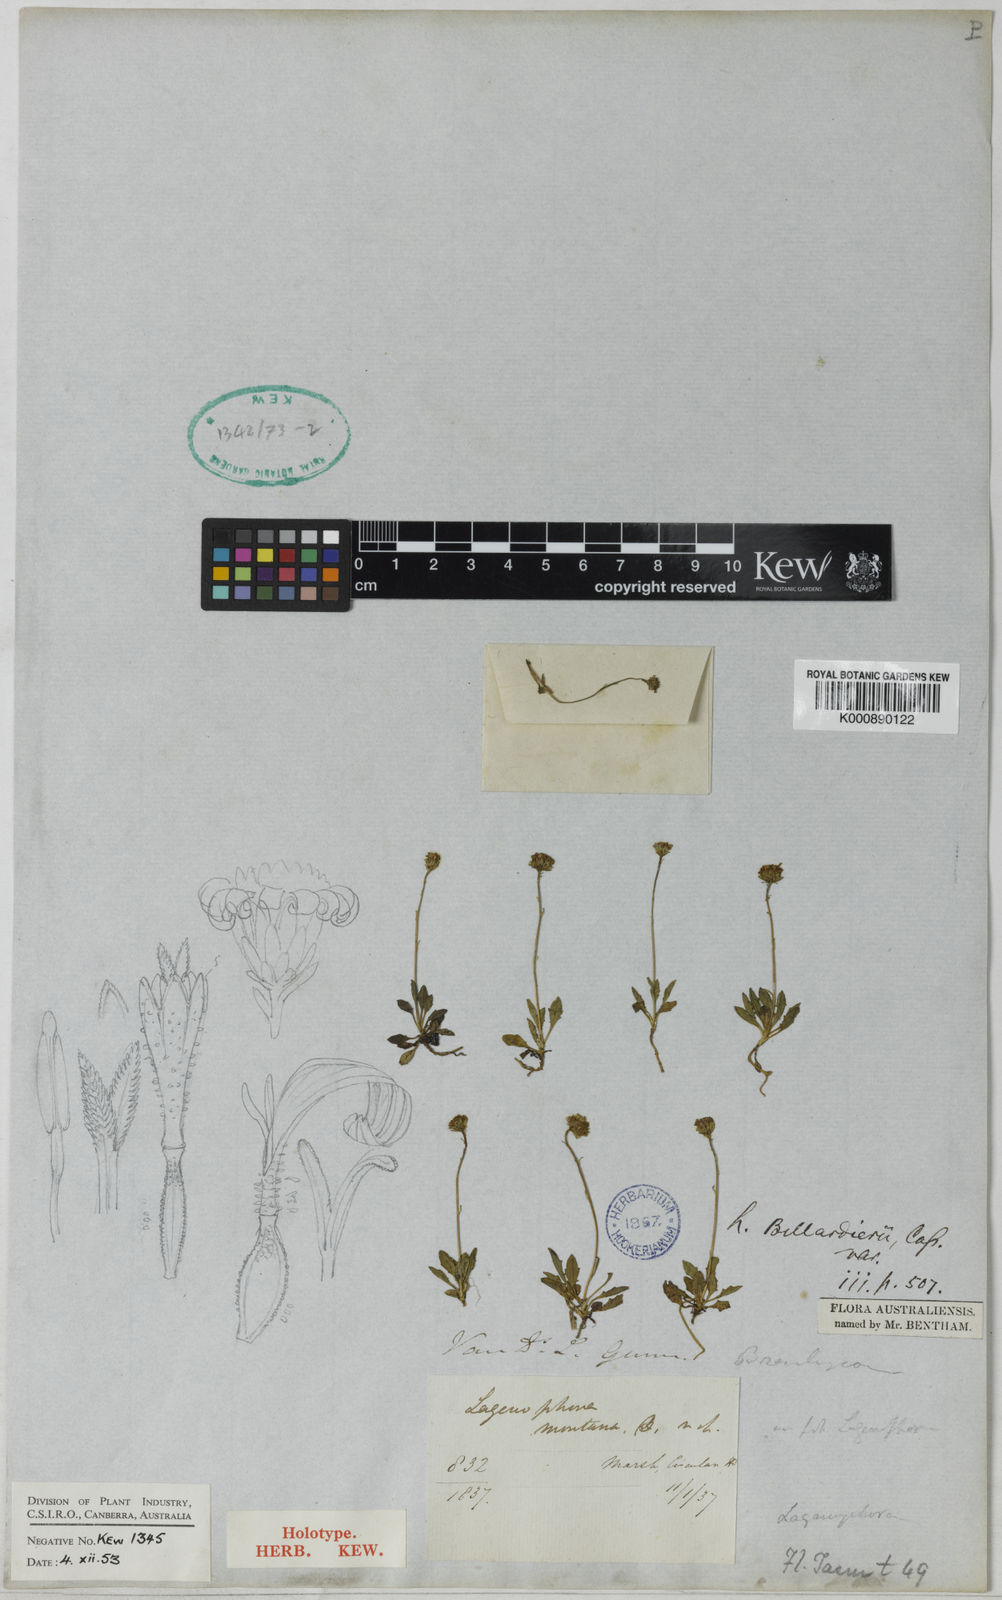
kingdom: Plantae
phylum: Tracheophyta
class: Magnoliopsida
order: Asterales
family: Asteraceae
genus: Lagenophora
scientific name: Lagenophora stipitata
